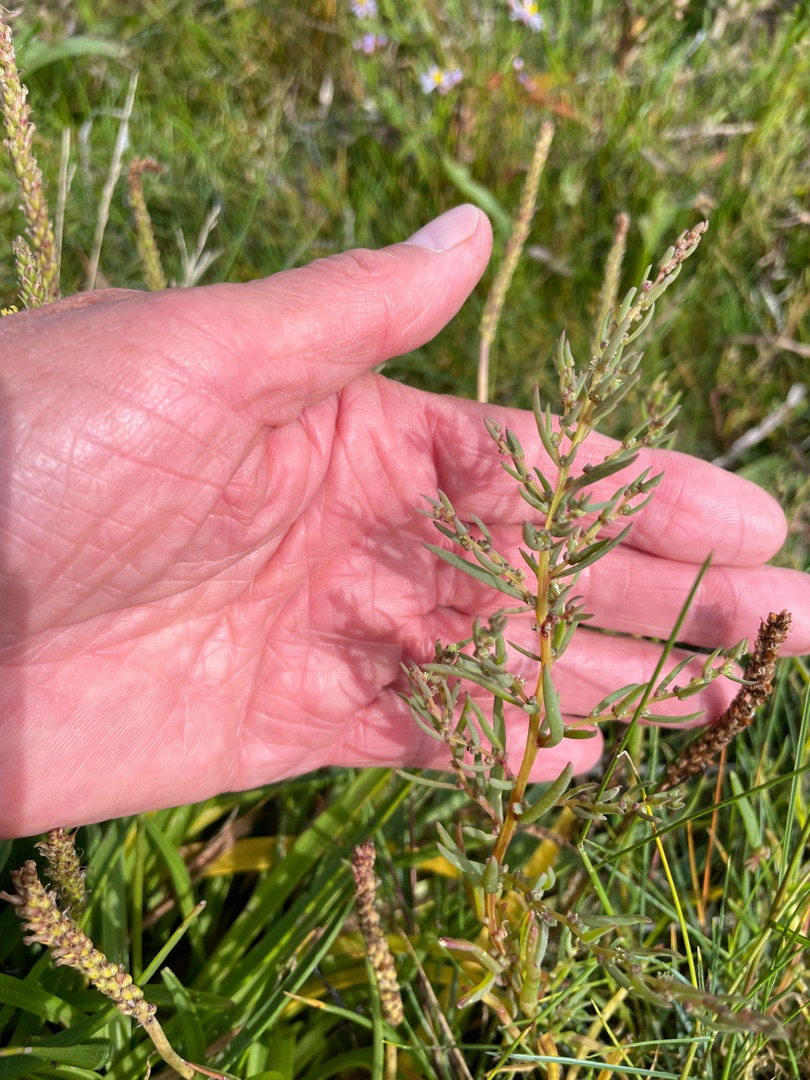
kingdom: Plantae
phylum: Tracheophyta
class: Magnoliopsida
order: Caryophyllales
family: Amaranthaceae
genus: Suaeda
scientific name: Suaeda maritima
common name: Strandgåsefod
